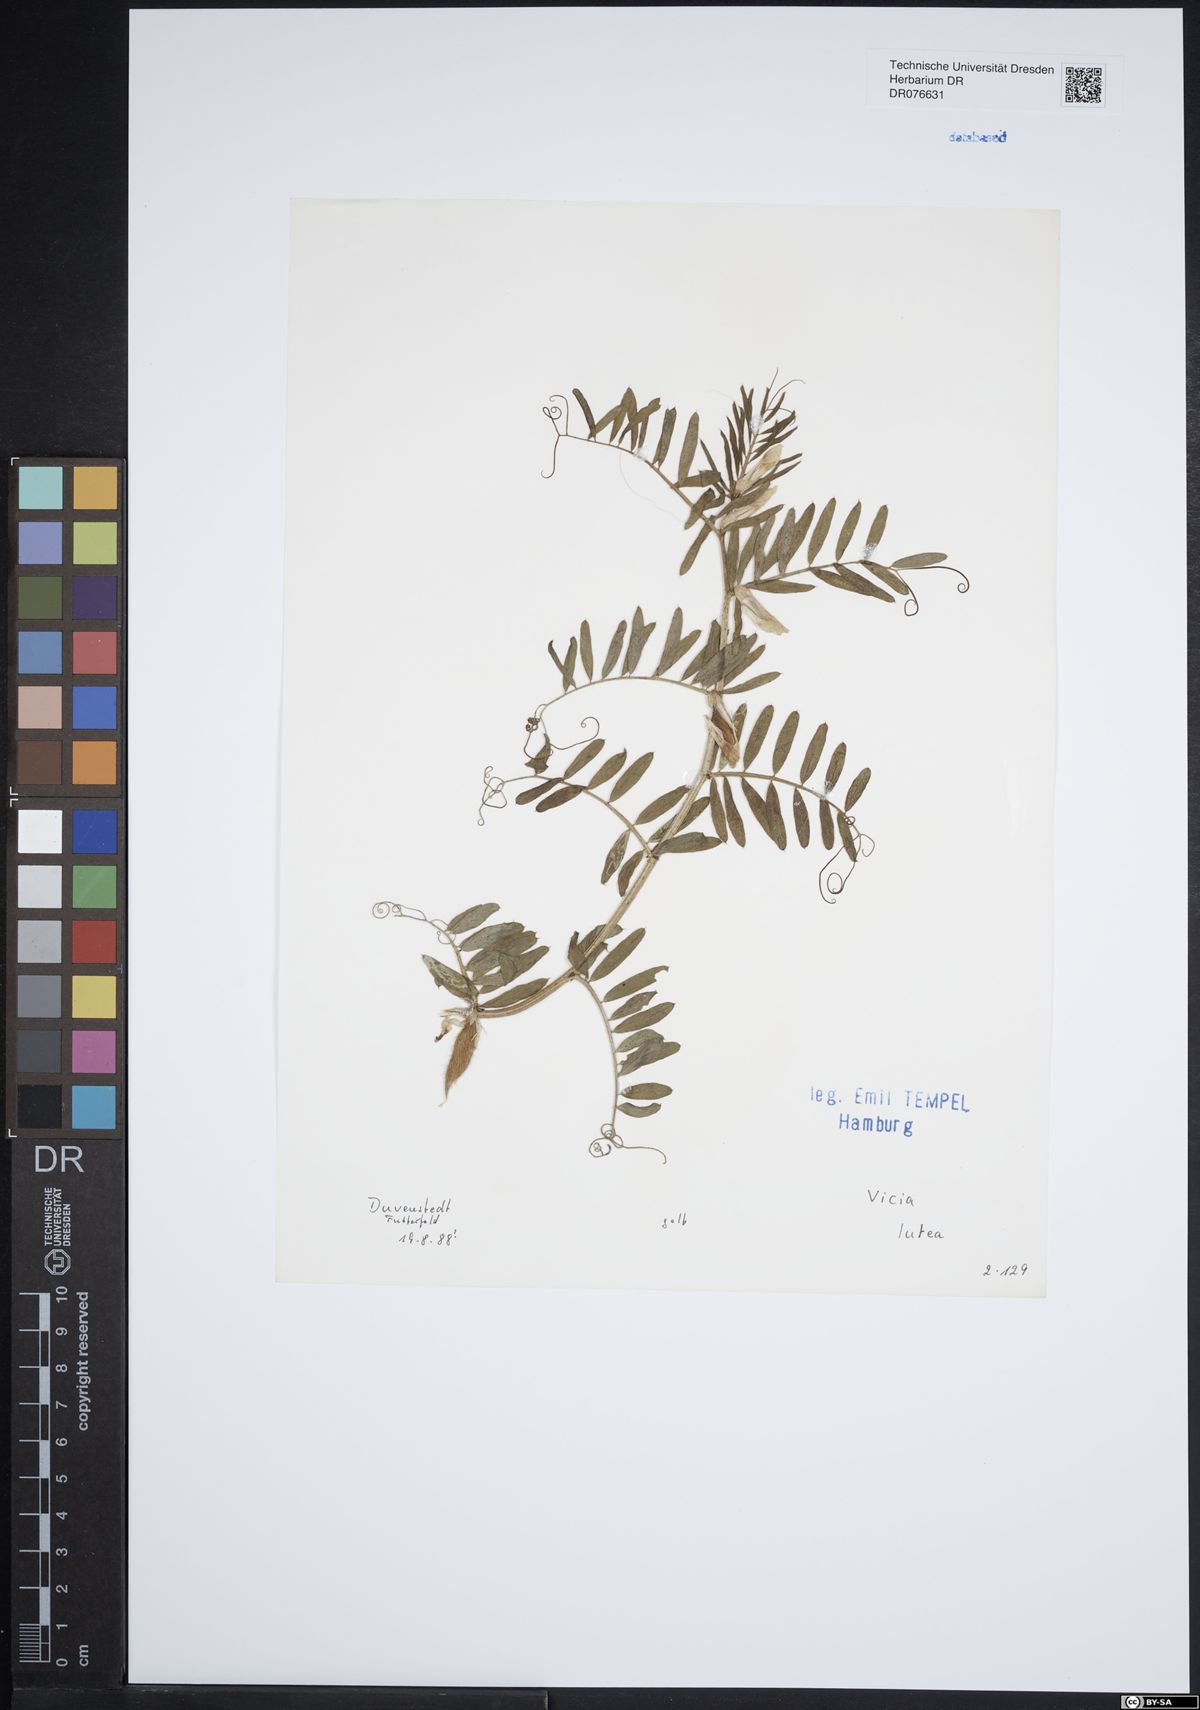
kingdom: Plantae
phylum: Tracheophyta
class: Magnoliopsida
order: Fabales
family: Fabaceae
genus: Vicia
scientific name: Vicia lutea
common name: Smooth yellow vetch
